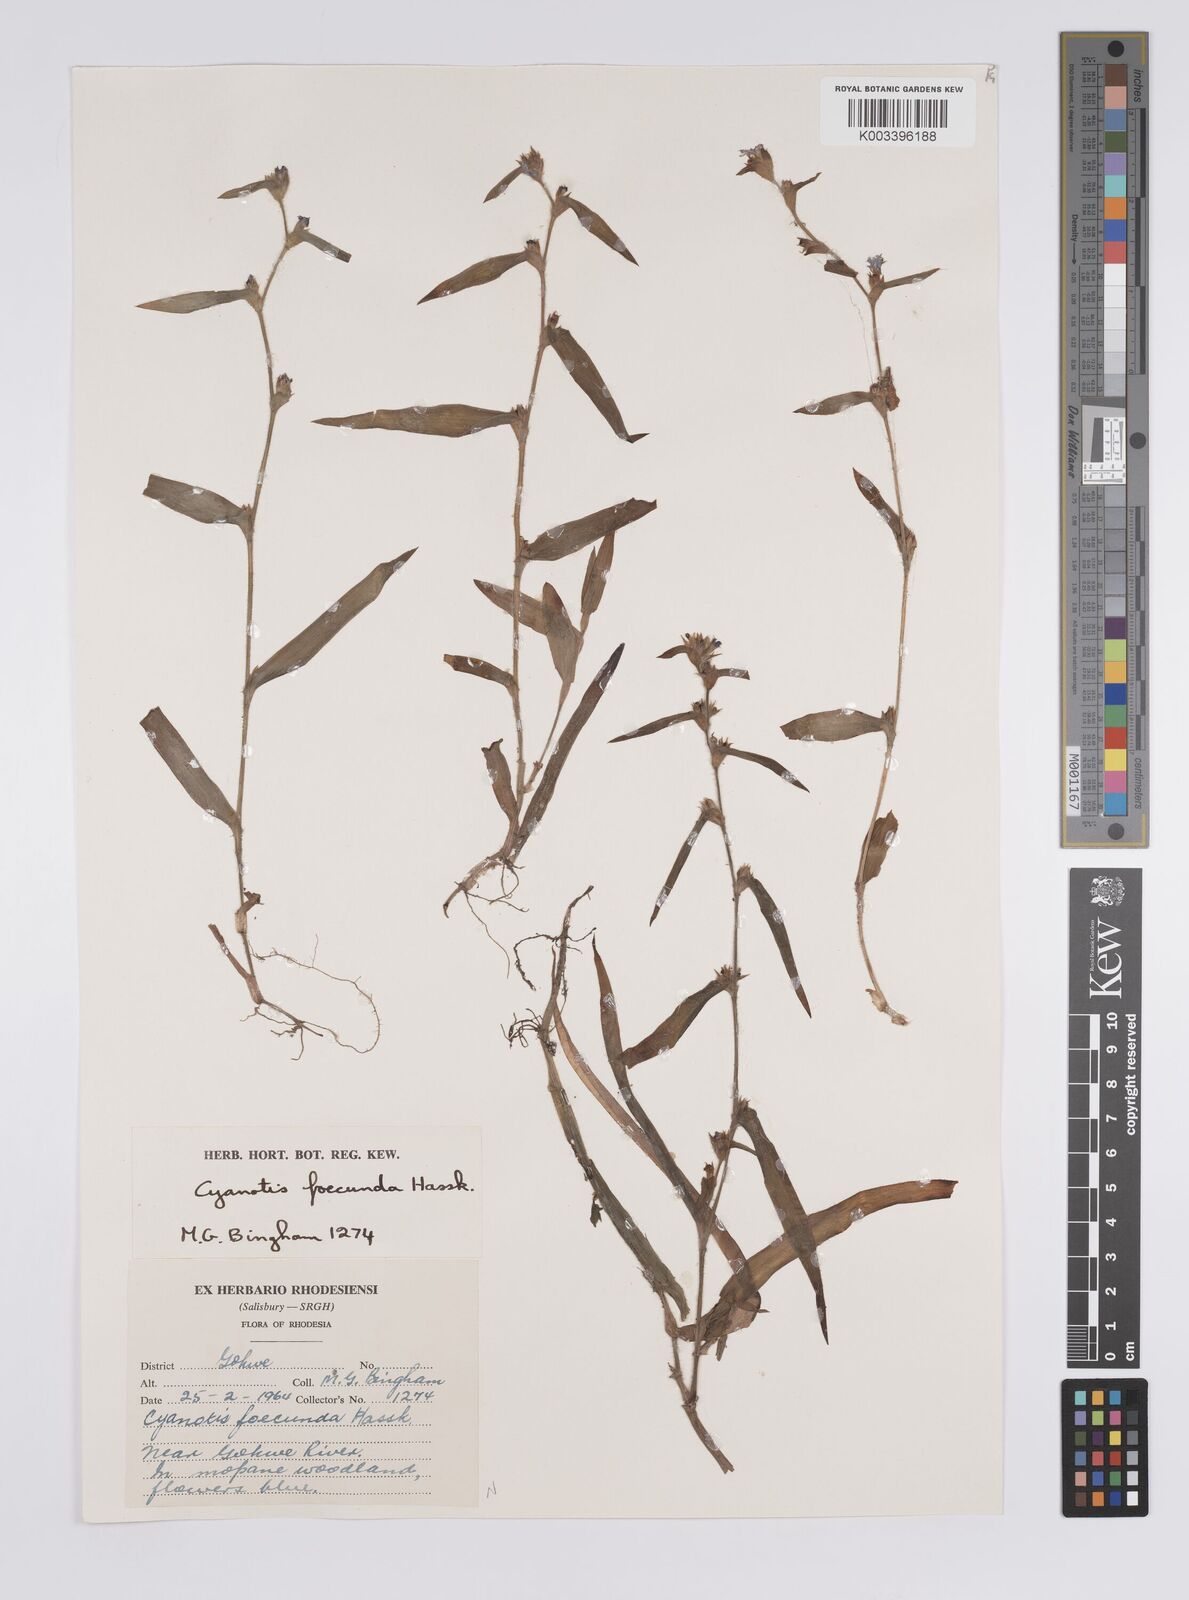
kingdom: Plantae
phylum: Tracheophyta
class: Liliopsida
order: Commelinales
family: Commelinaceae
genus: Cyanotis
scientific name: Cyanotis foecunda
